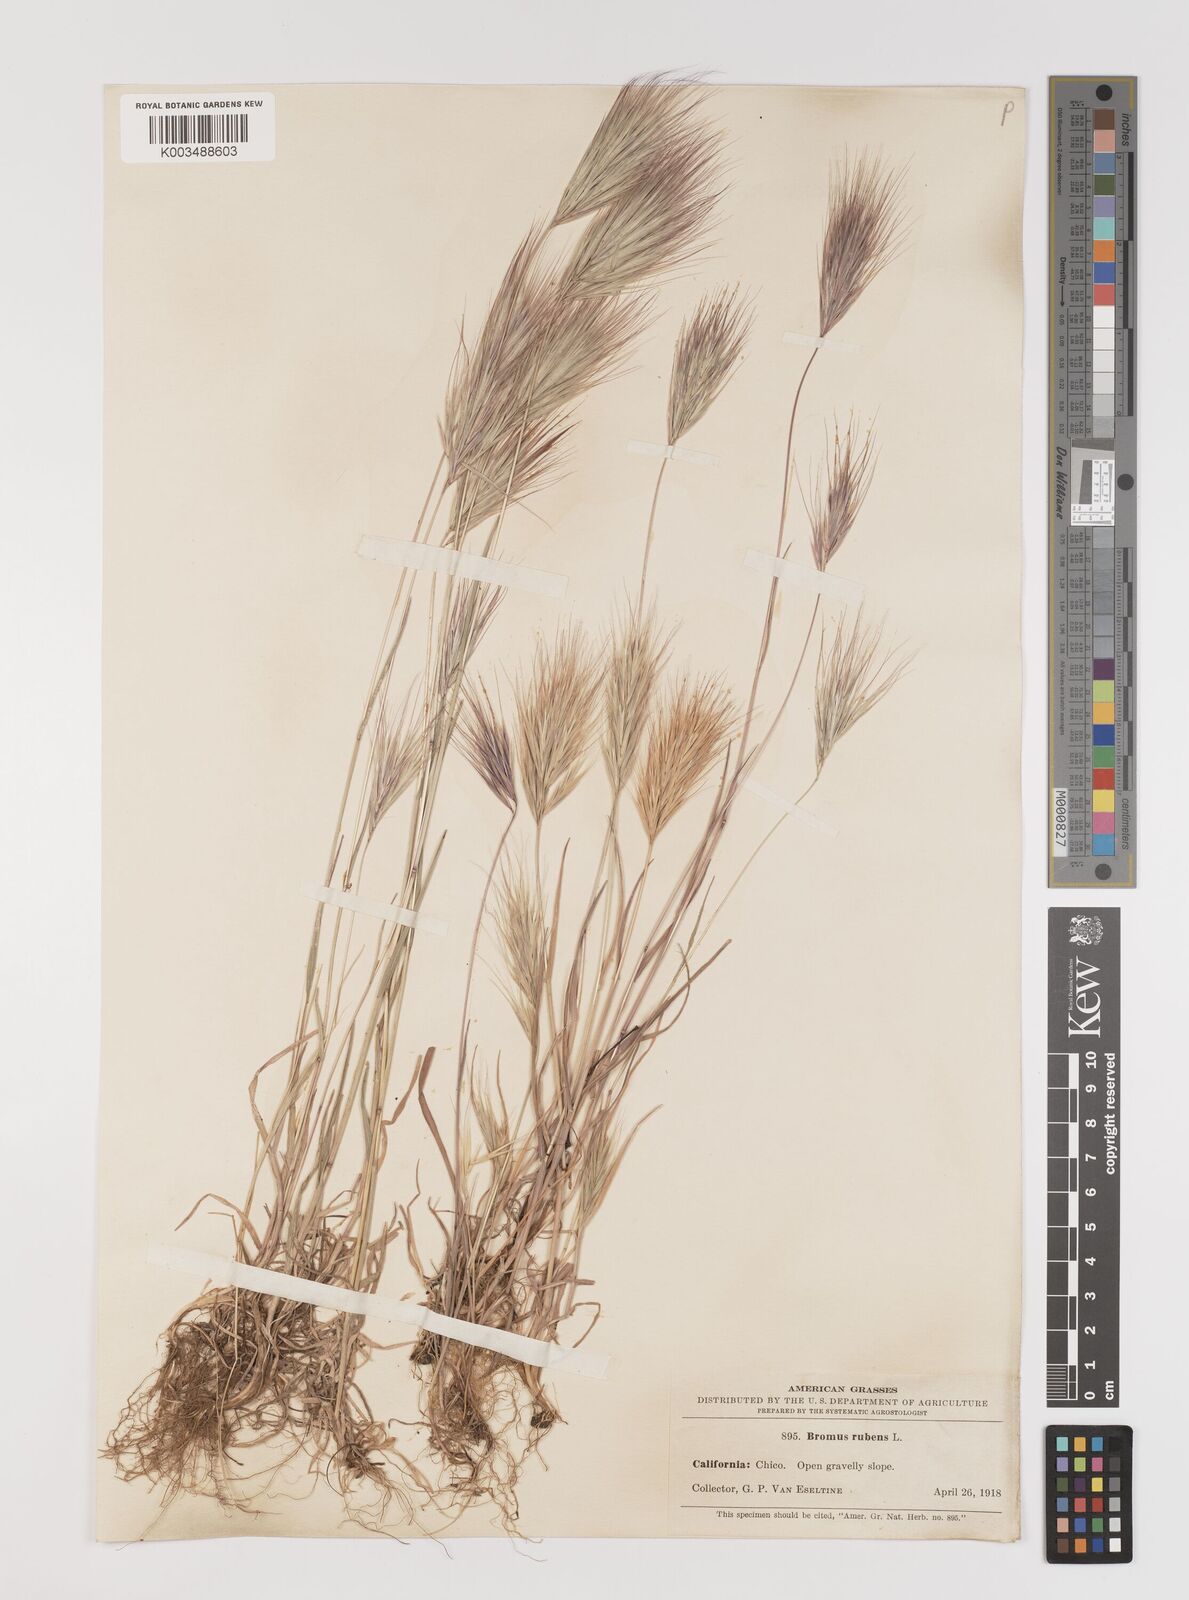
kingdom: Plantae
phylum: Tracheophyta
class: Liliopsida
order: Poales
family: Poaceae
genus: Bromus
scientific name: Bromus rubens
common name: Red brome
